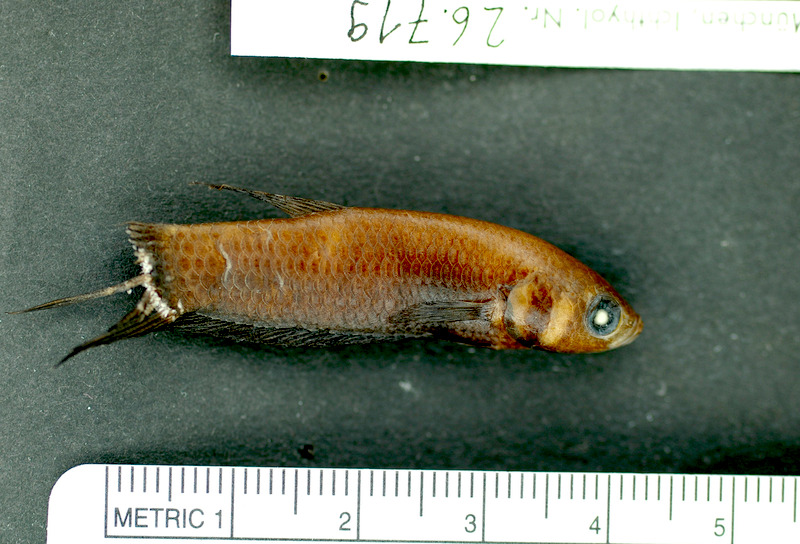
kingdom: Animalia
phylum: Chordata
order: Perciformes
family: Osphronemidae
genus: Betta
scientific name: Betta strohi
